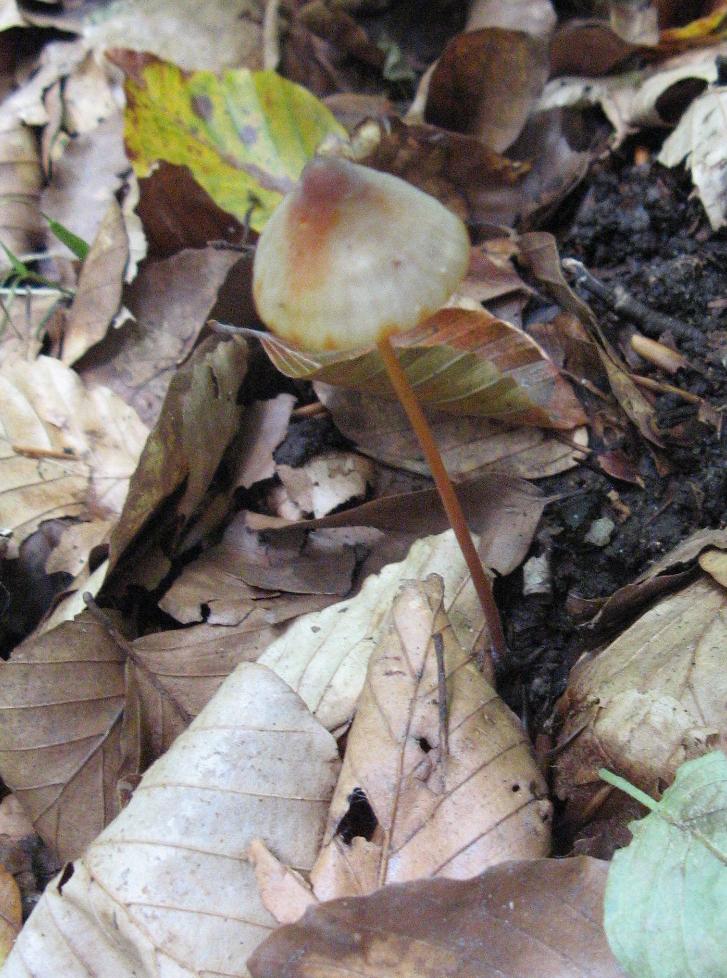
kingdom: Fungi
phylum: Basidiomycota
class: Agaricomycetes
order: Agaricales
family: Mycenaceae
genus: Mycena
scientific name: Mycena crocata
